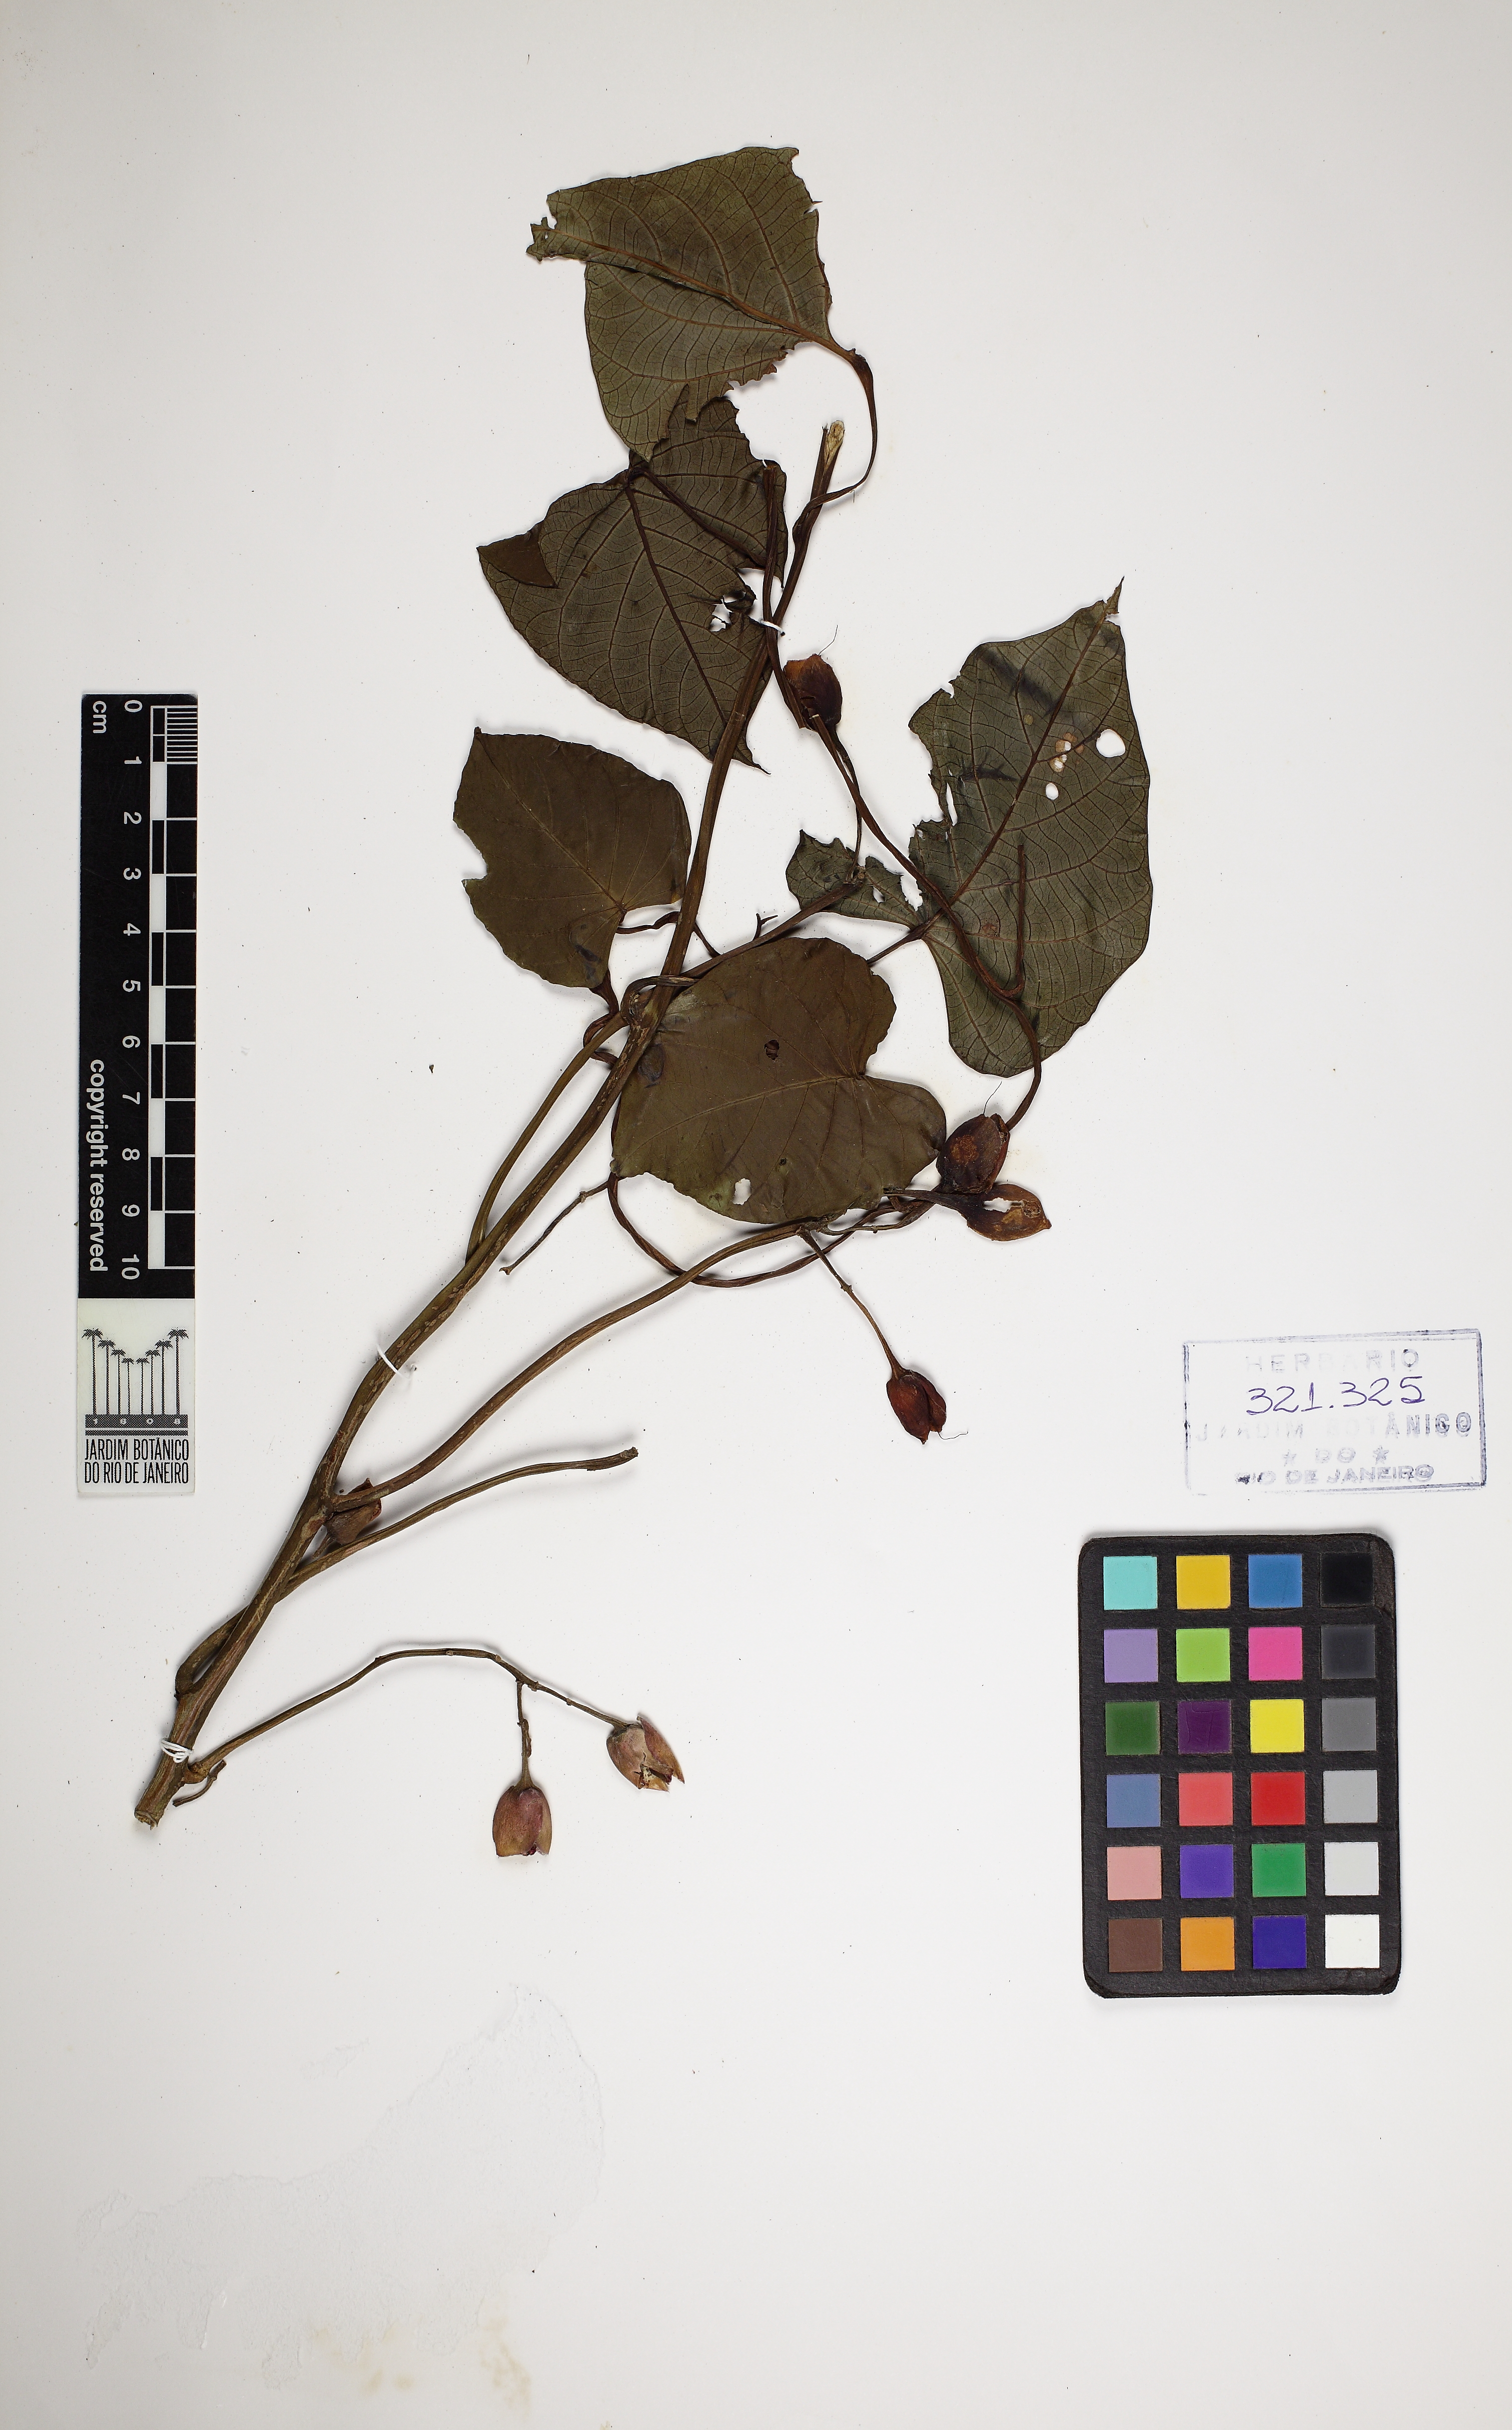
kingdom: Plantae
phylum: Tracheophyta
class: Magnoliopsida
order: Solanales
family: Convolvulaceae
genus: Ipomoea
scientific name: Ipomoea philomega
